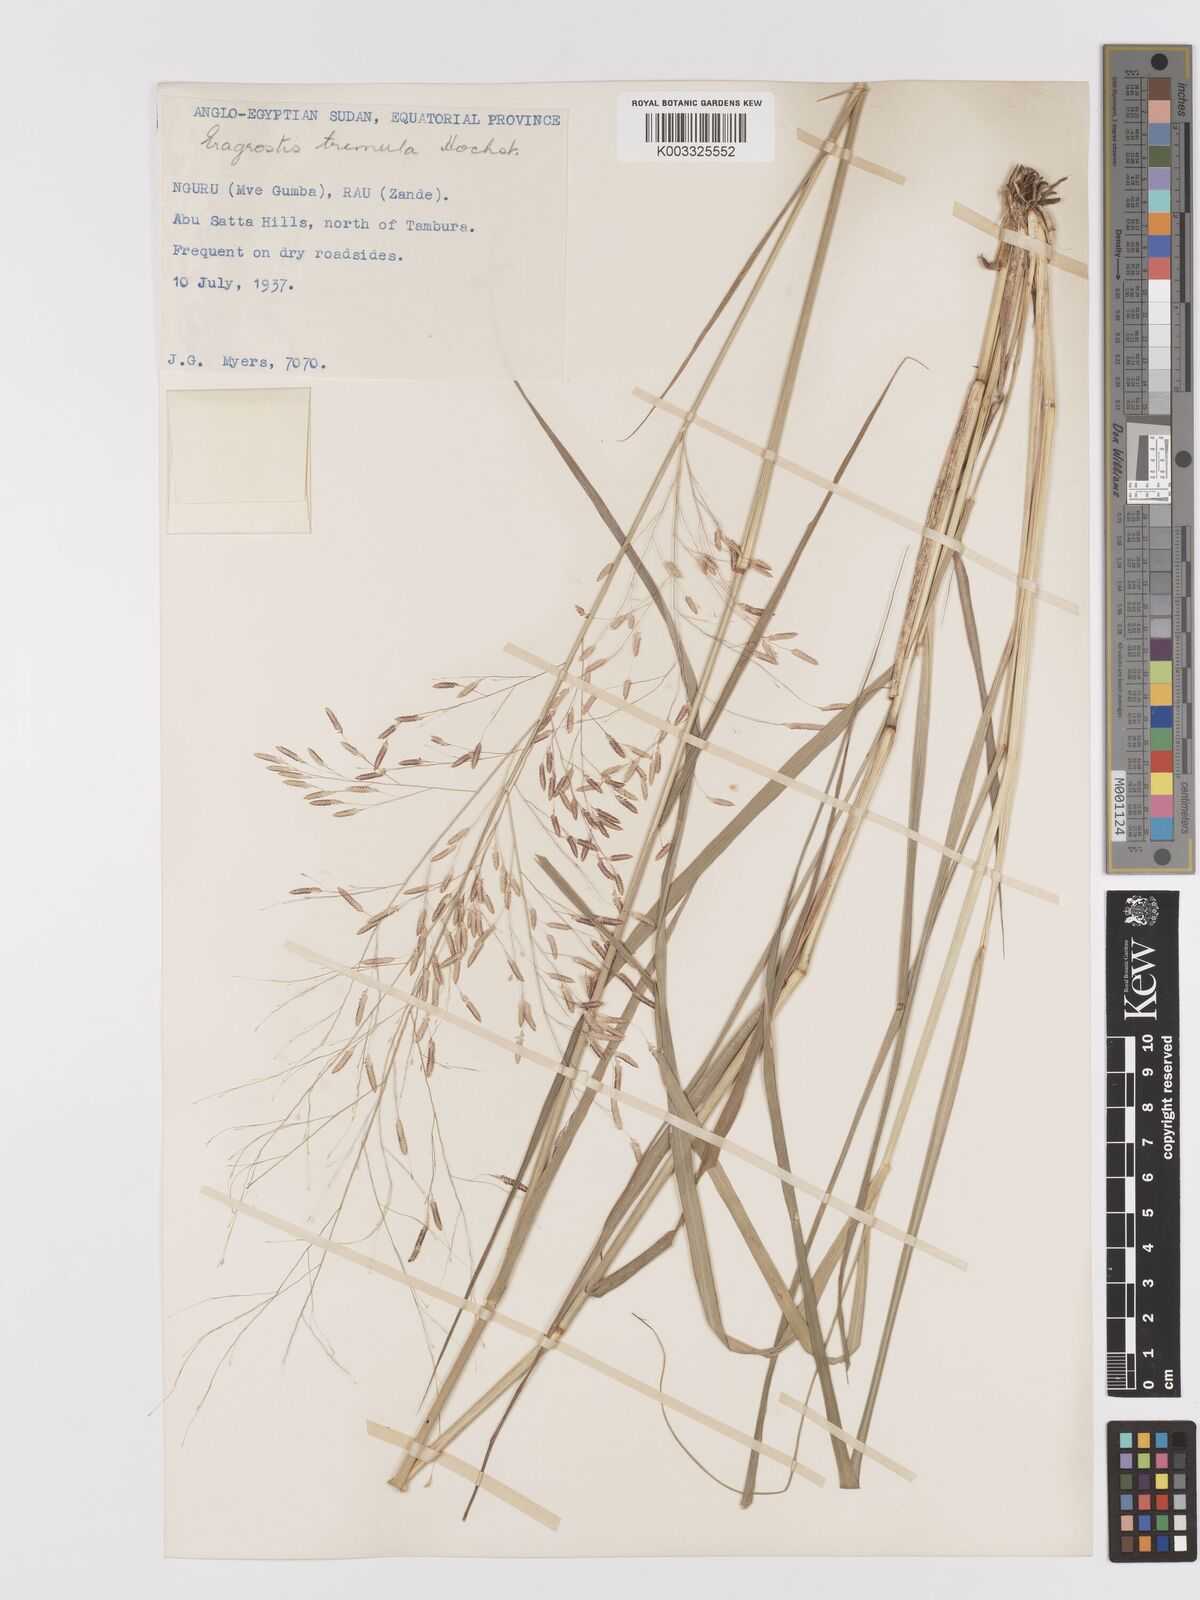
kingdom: Plantae
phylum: Tracheophyta
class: Liliopsida
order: Poales
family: Poaceae
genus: Eragrostis
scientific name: Eragrostis tremula
